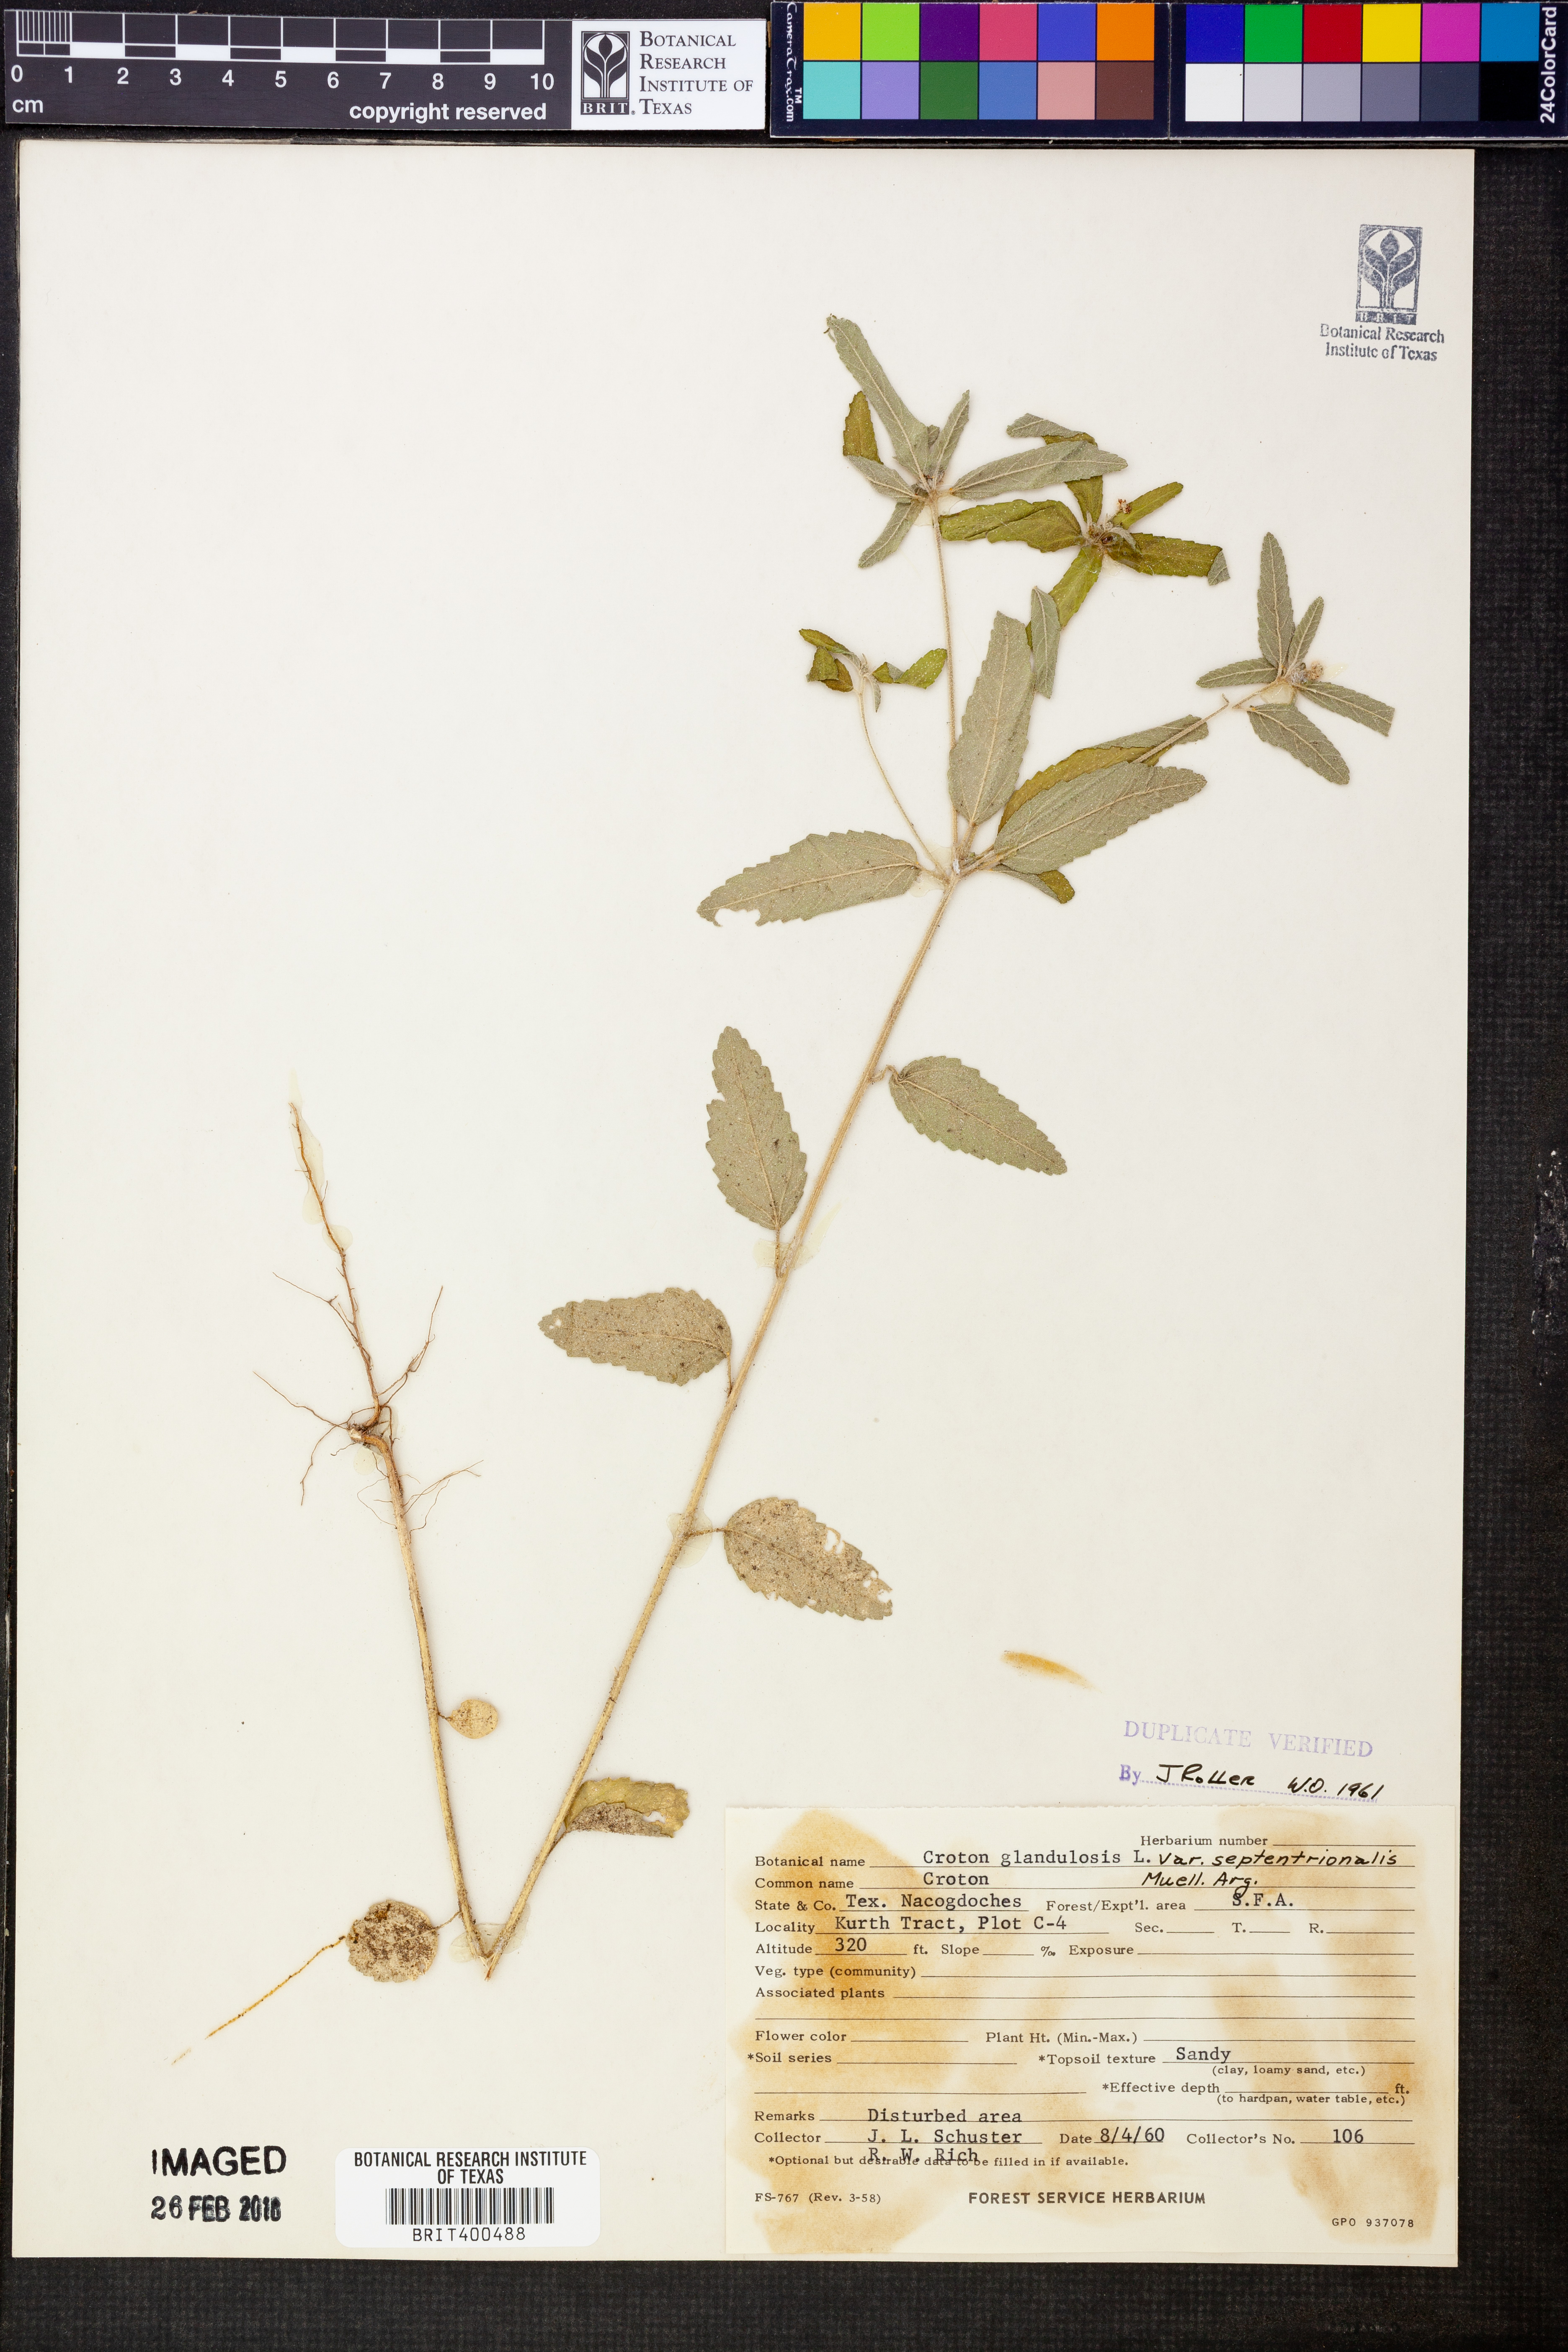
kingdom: Plantae
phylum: Tracheophyta
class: Magnoliopsida
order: Malpighiales
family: Euphorbiaceae
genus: Croton
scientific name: Croton glandulosus
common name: Tropic croton
